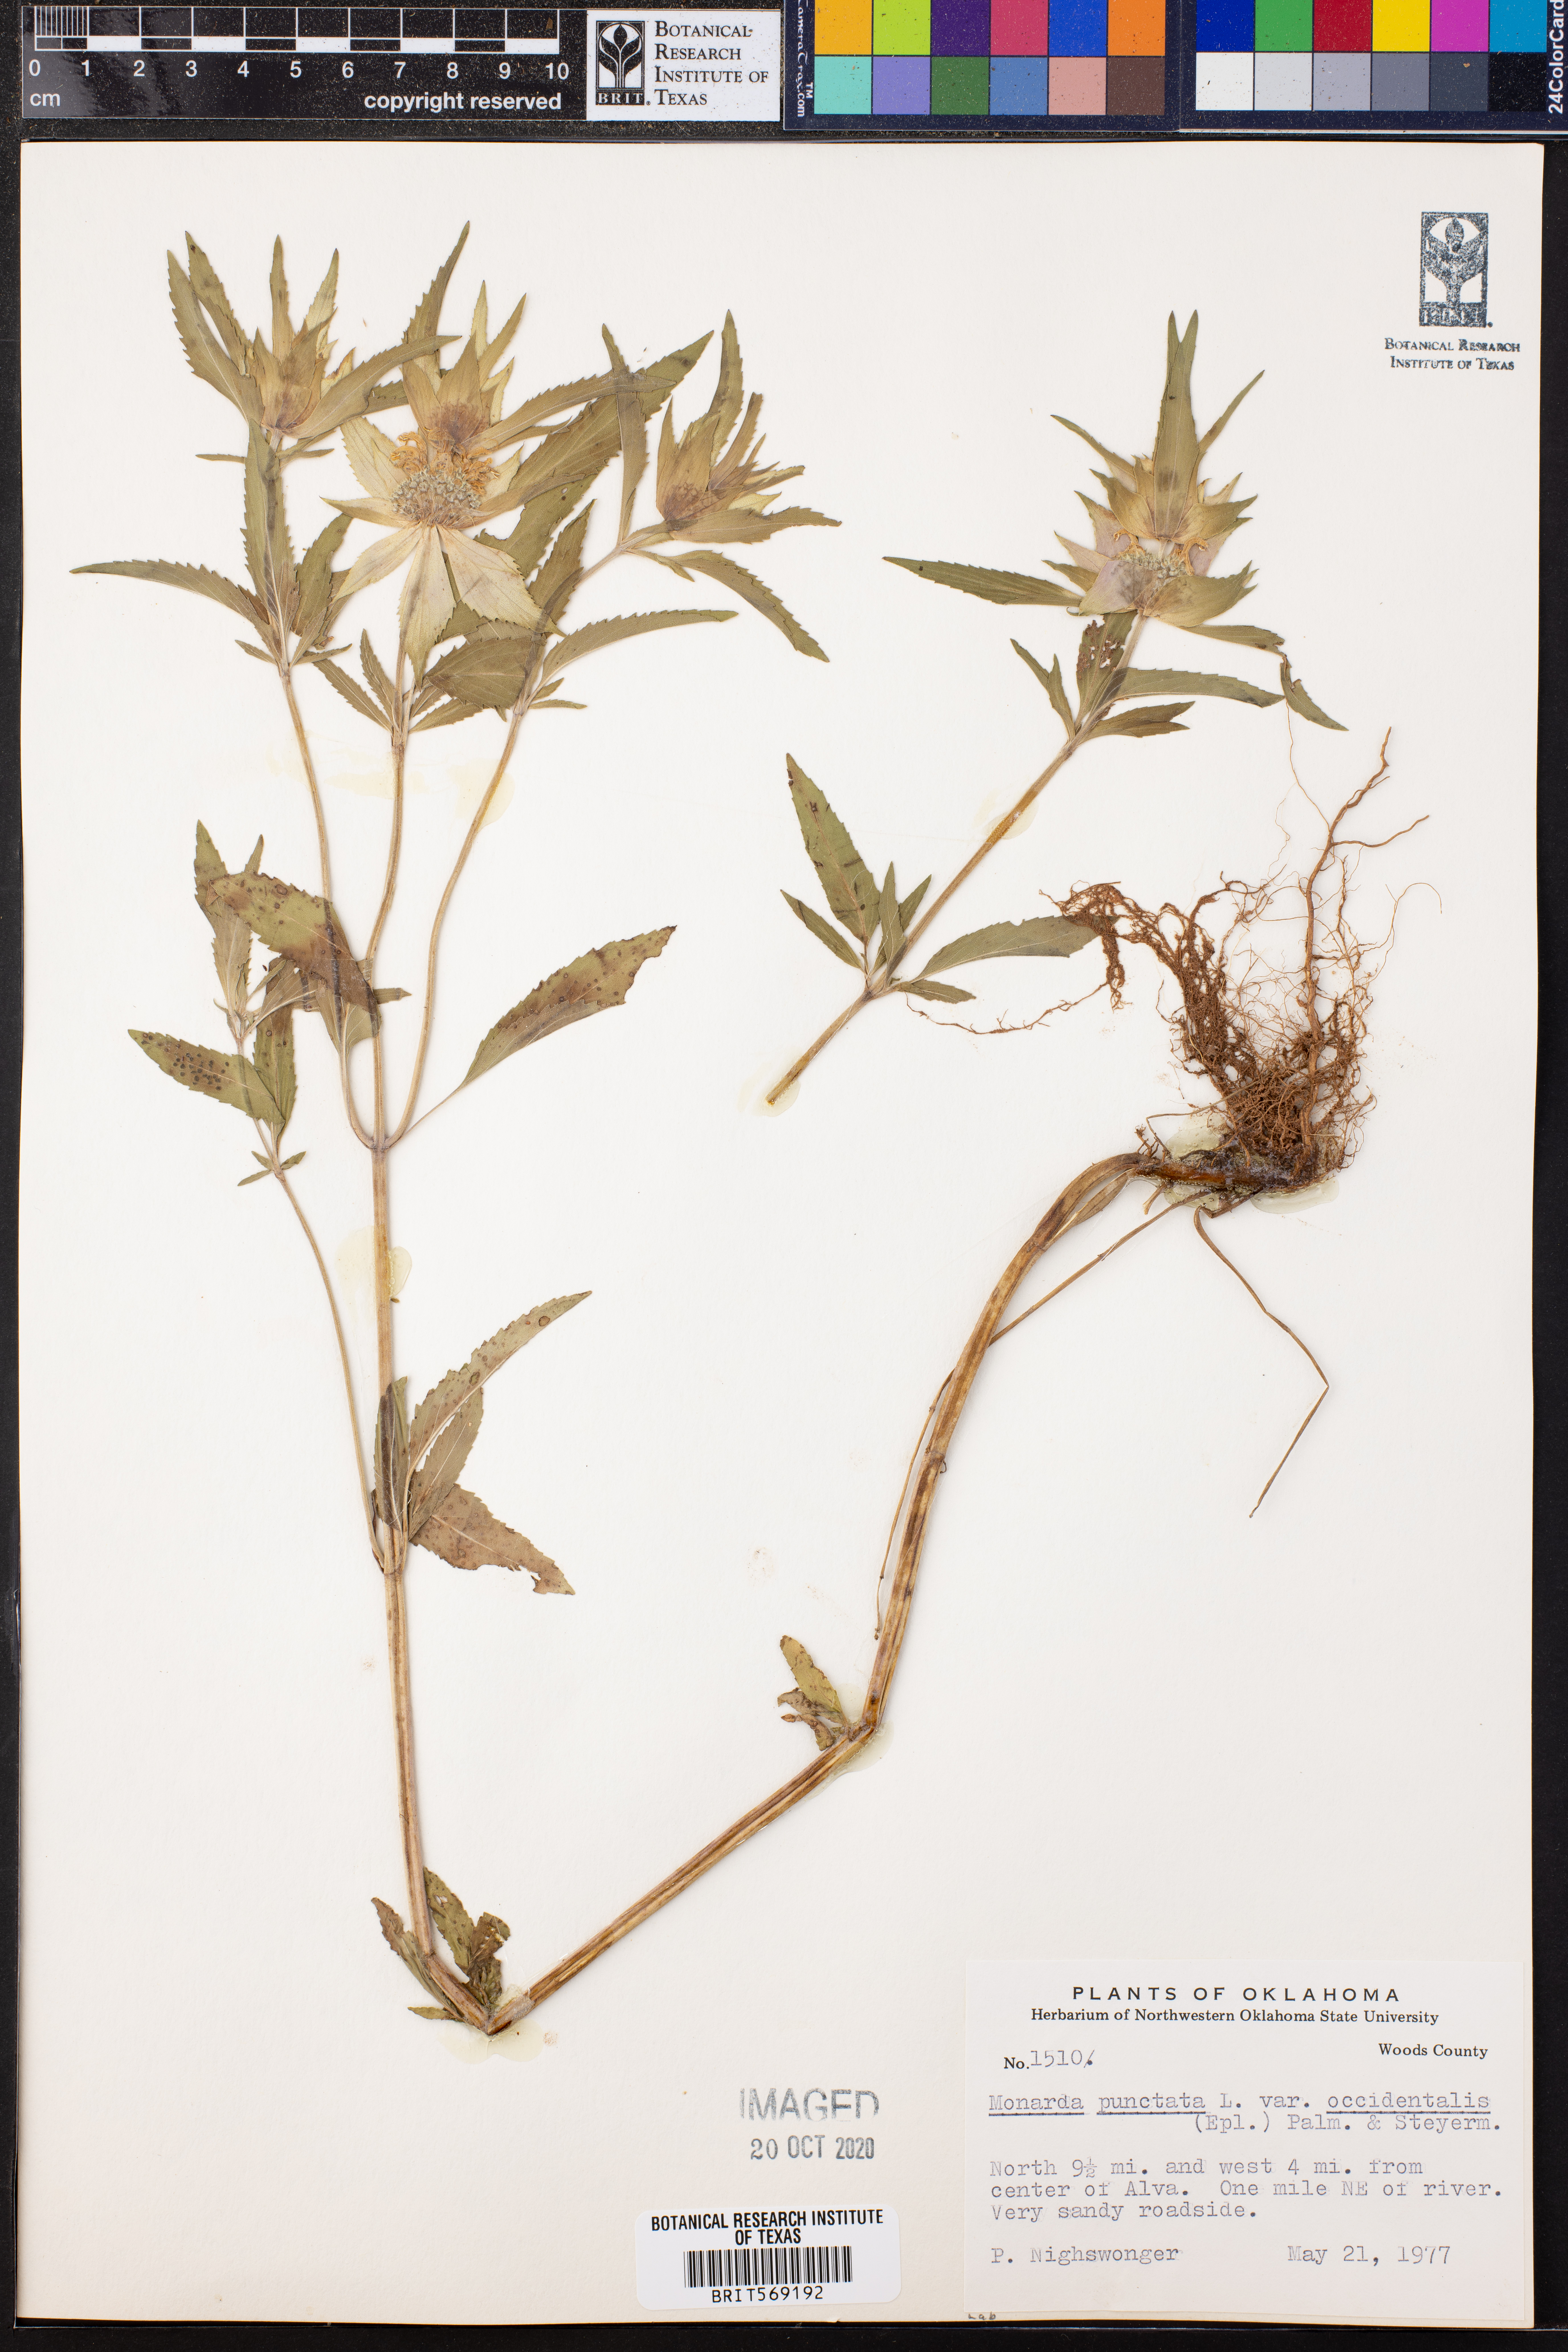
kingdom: Plantae
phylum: Tracheophyta
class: Magnoliopsida
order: Lamiales
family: Lamiaceae
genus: Monarda
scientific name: Monarda punctata
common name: Dotted monarda
